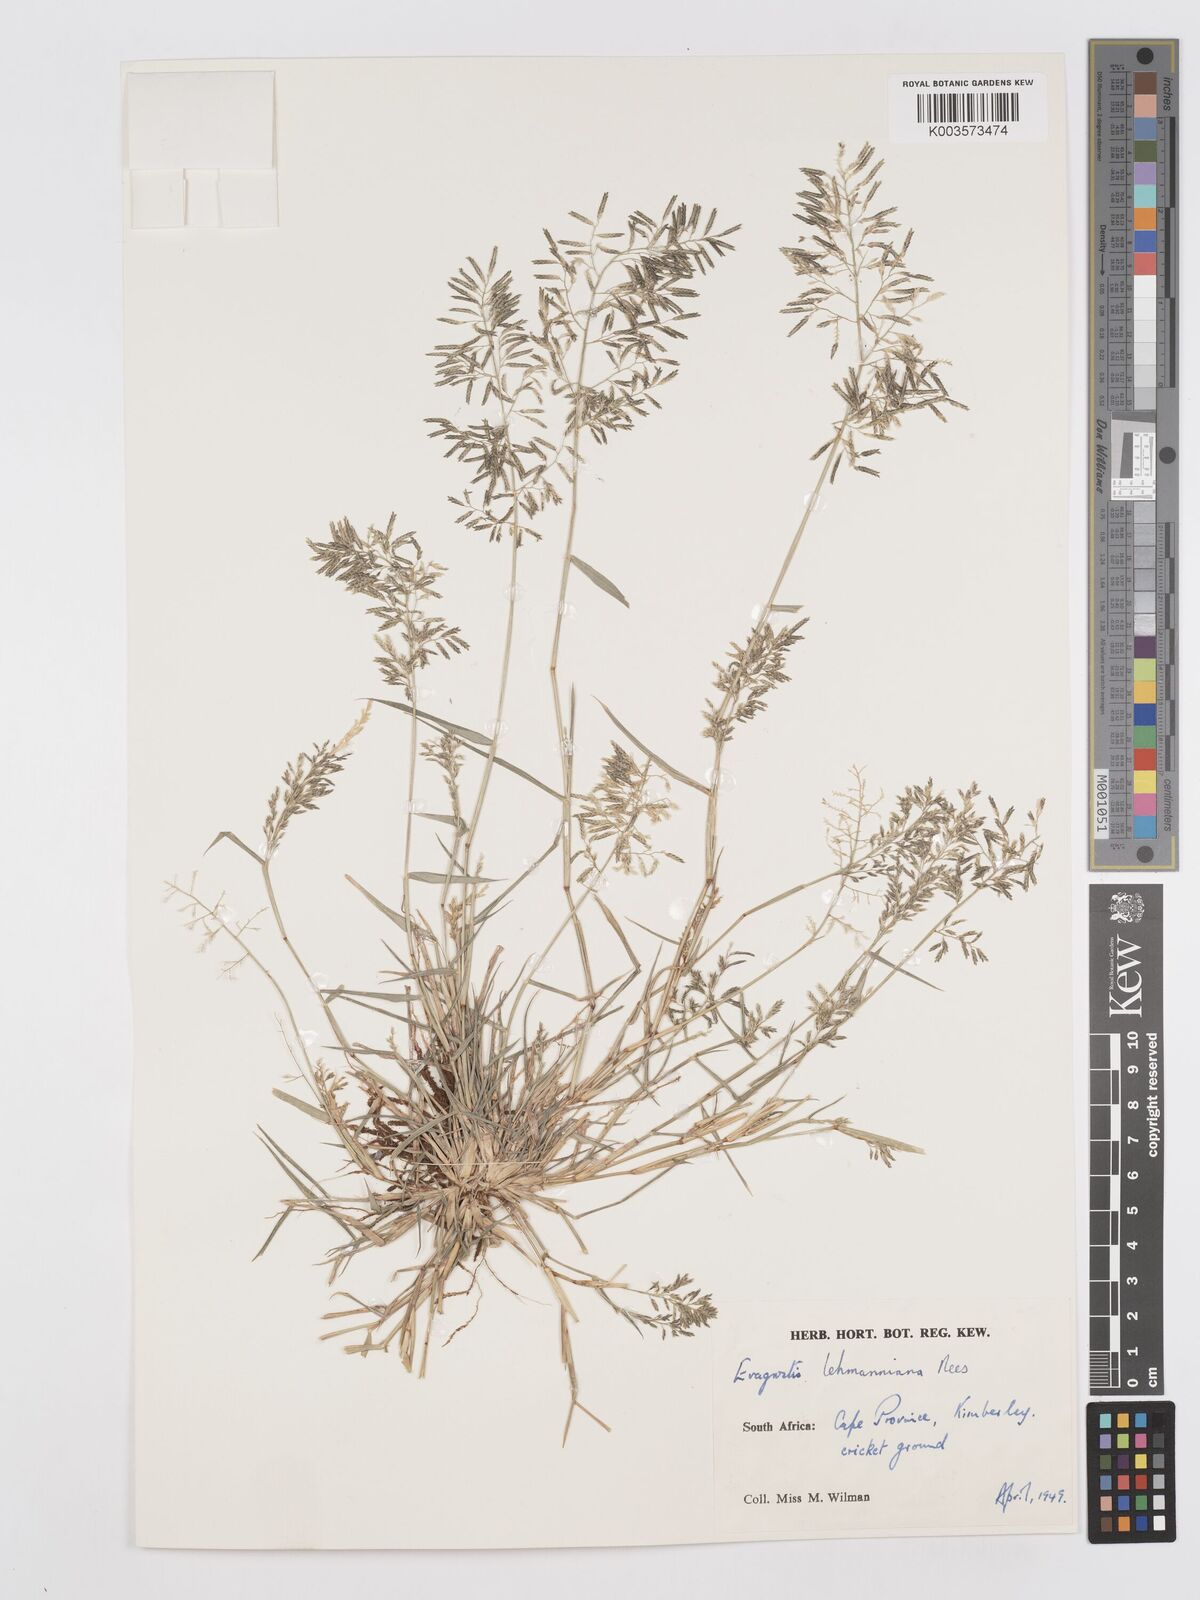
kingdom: Plantae
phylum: Tracheophyta
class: Liliopsida
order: Poales
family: Poaceae
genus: Eragrostis
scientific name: Eragrostis lehmanniana
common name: Lehmann lovegrass
